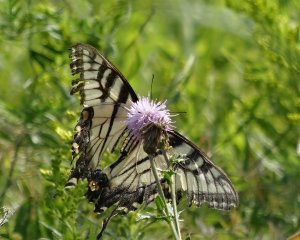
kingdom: Animalia
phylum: Arthropoda
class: Insecta
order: Lepidoptera
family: Papilionidae
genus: Pterourus
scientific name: Pterourus glaucus
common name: Eastern Tiger Swallowtail
